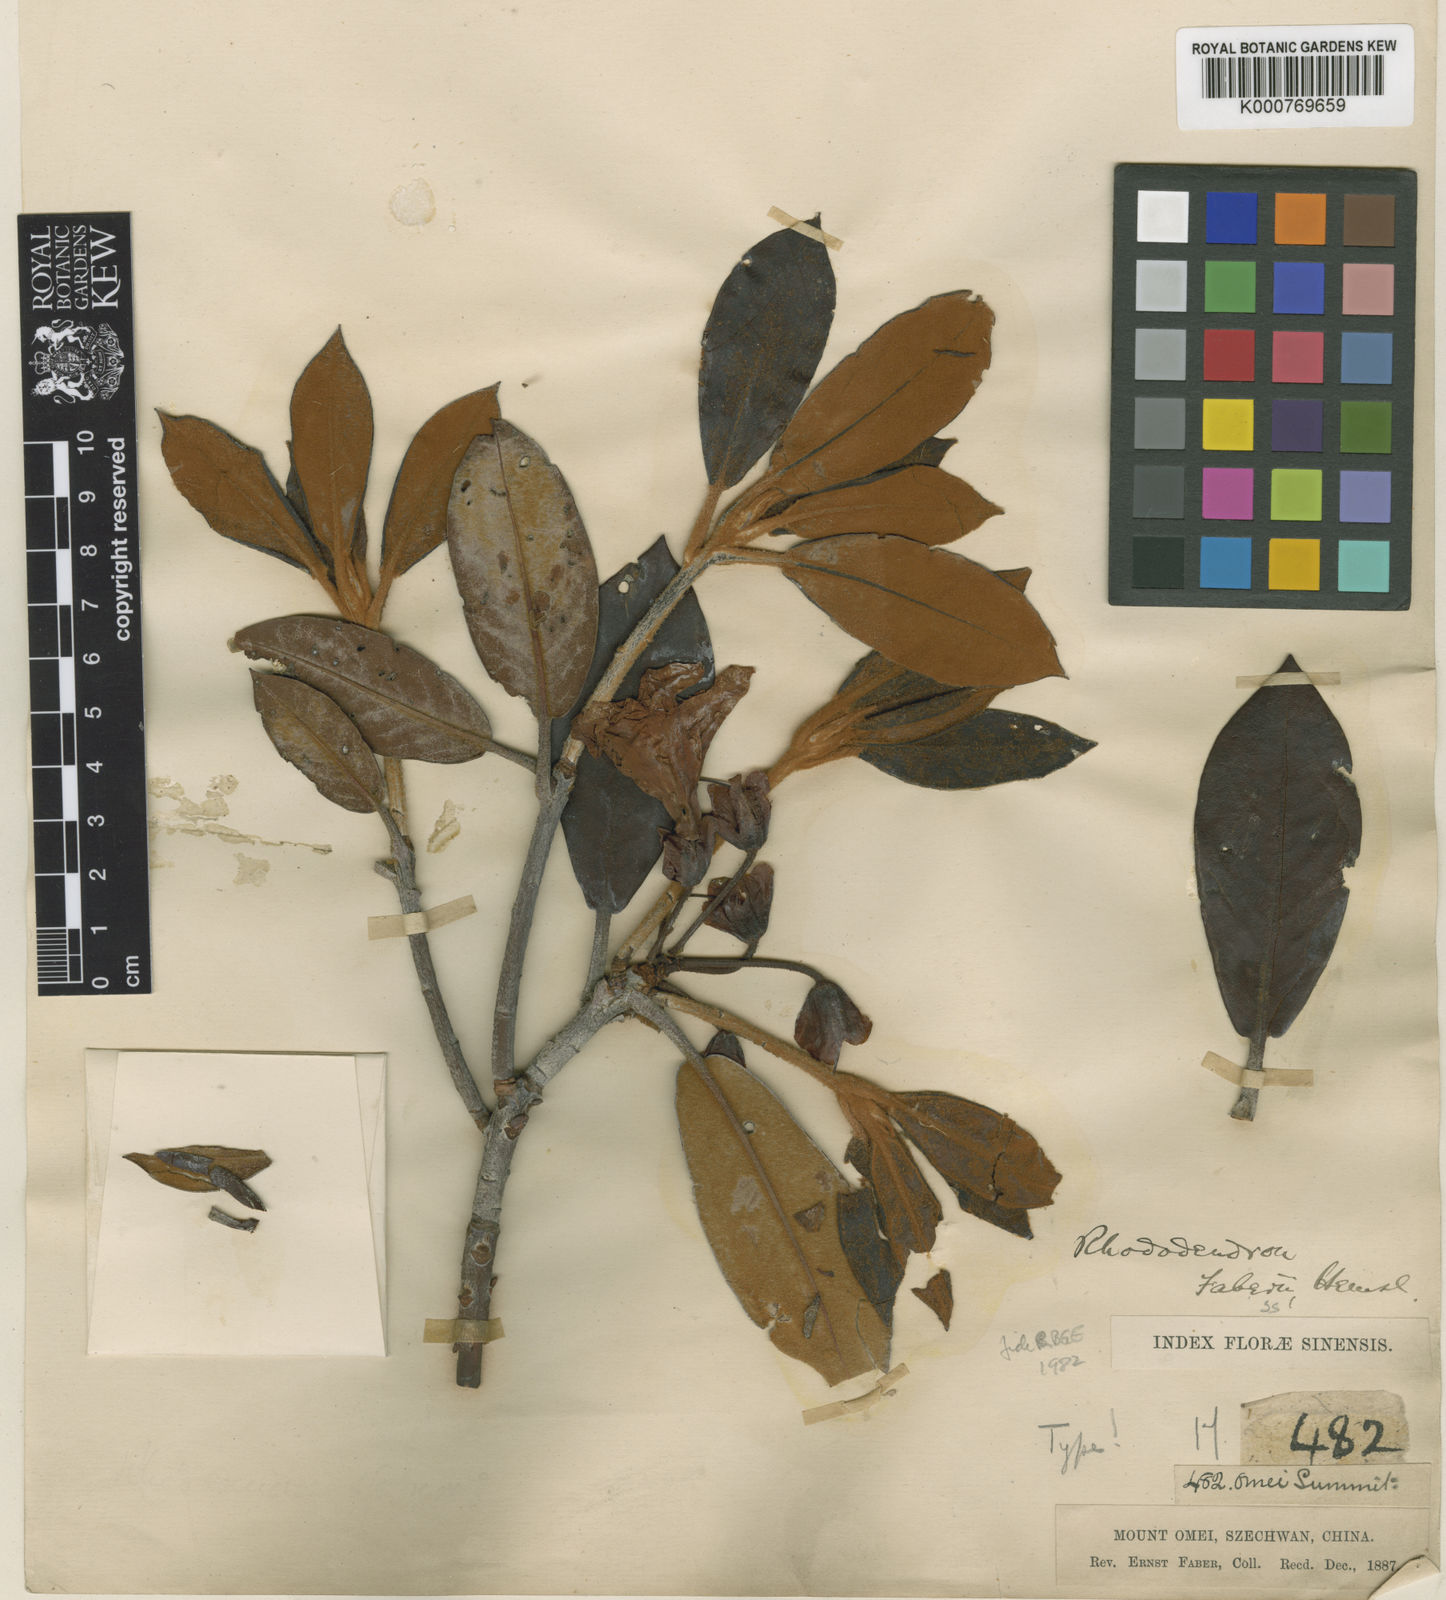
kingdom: Plantae
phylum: Tracheophyta
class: Magnoliopsida
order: Ericales
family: Ericaceae
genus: Rhododendron
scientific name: Rhododendron faberi
